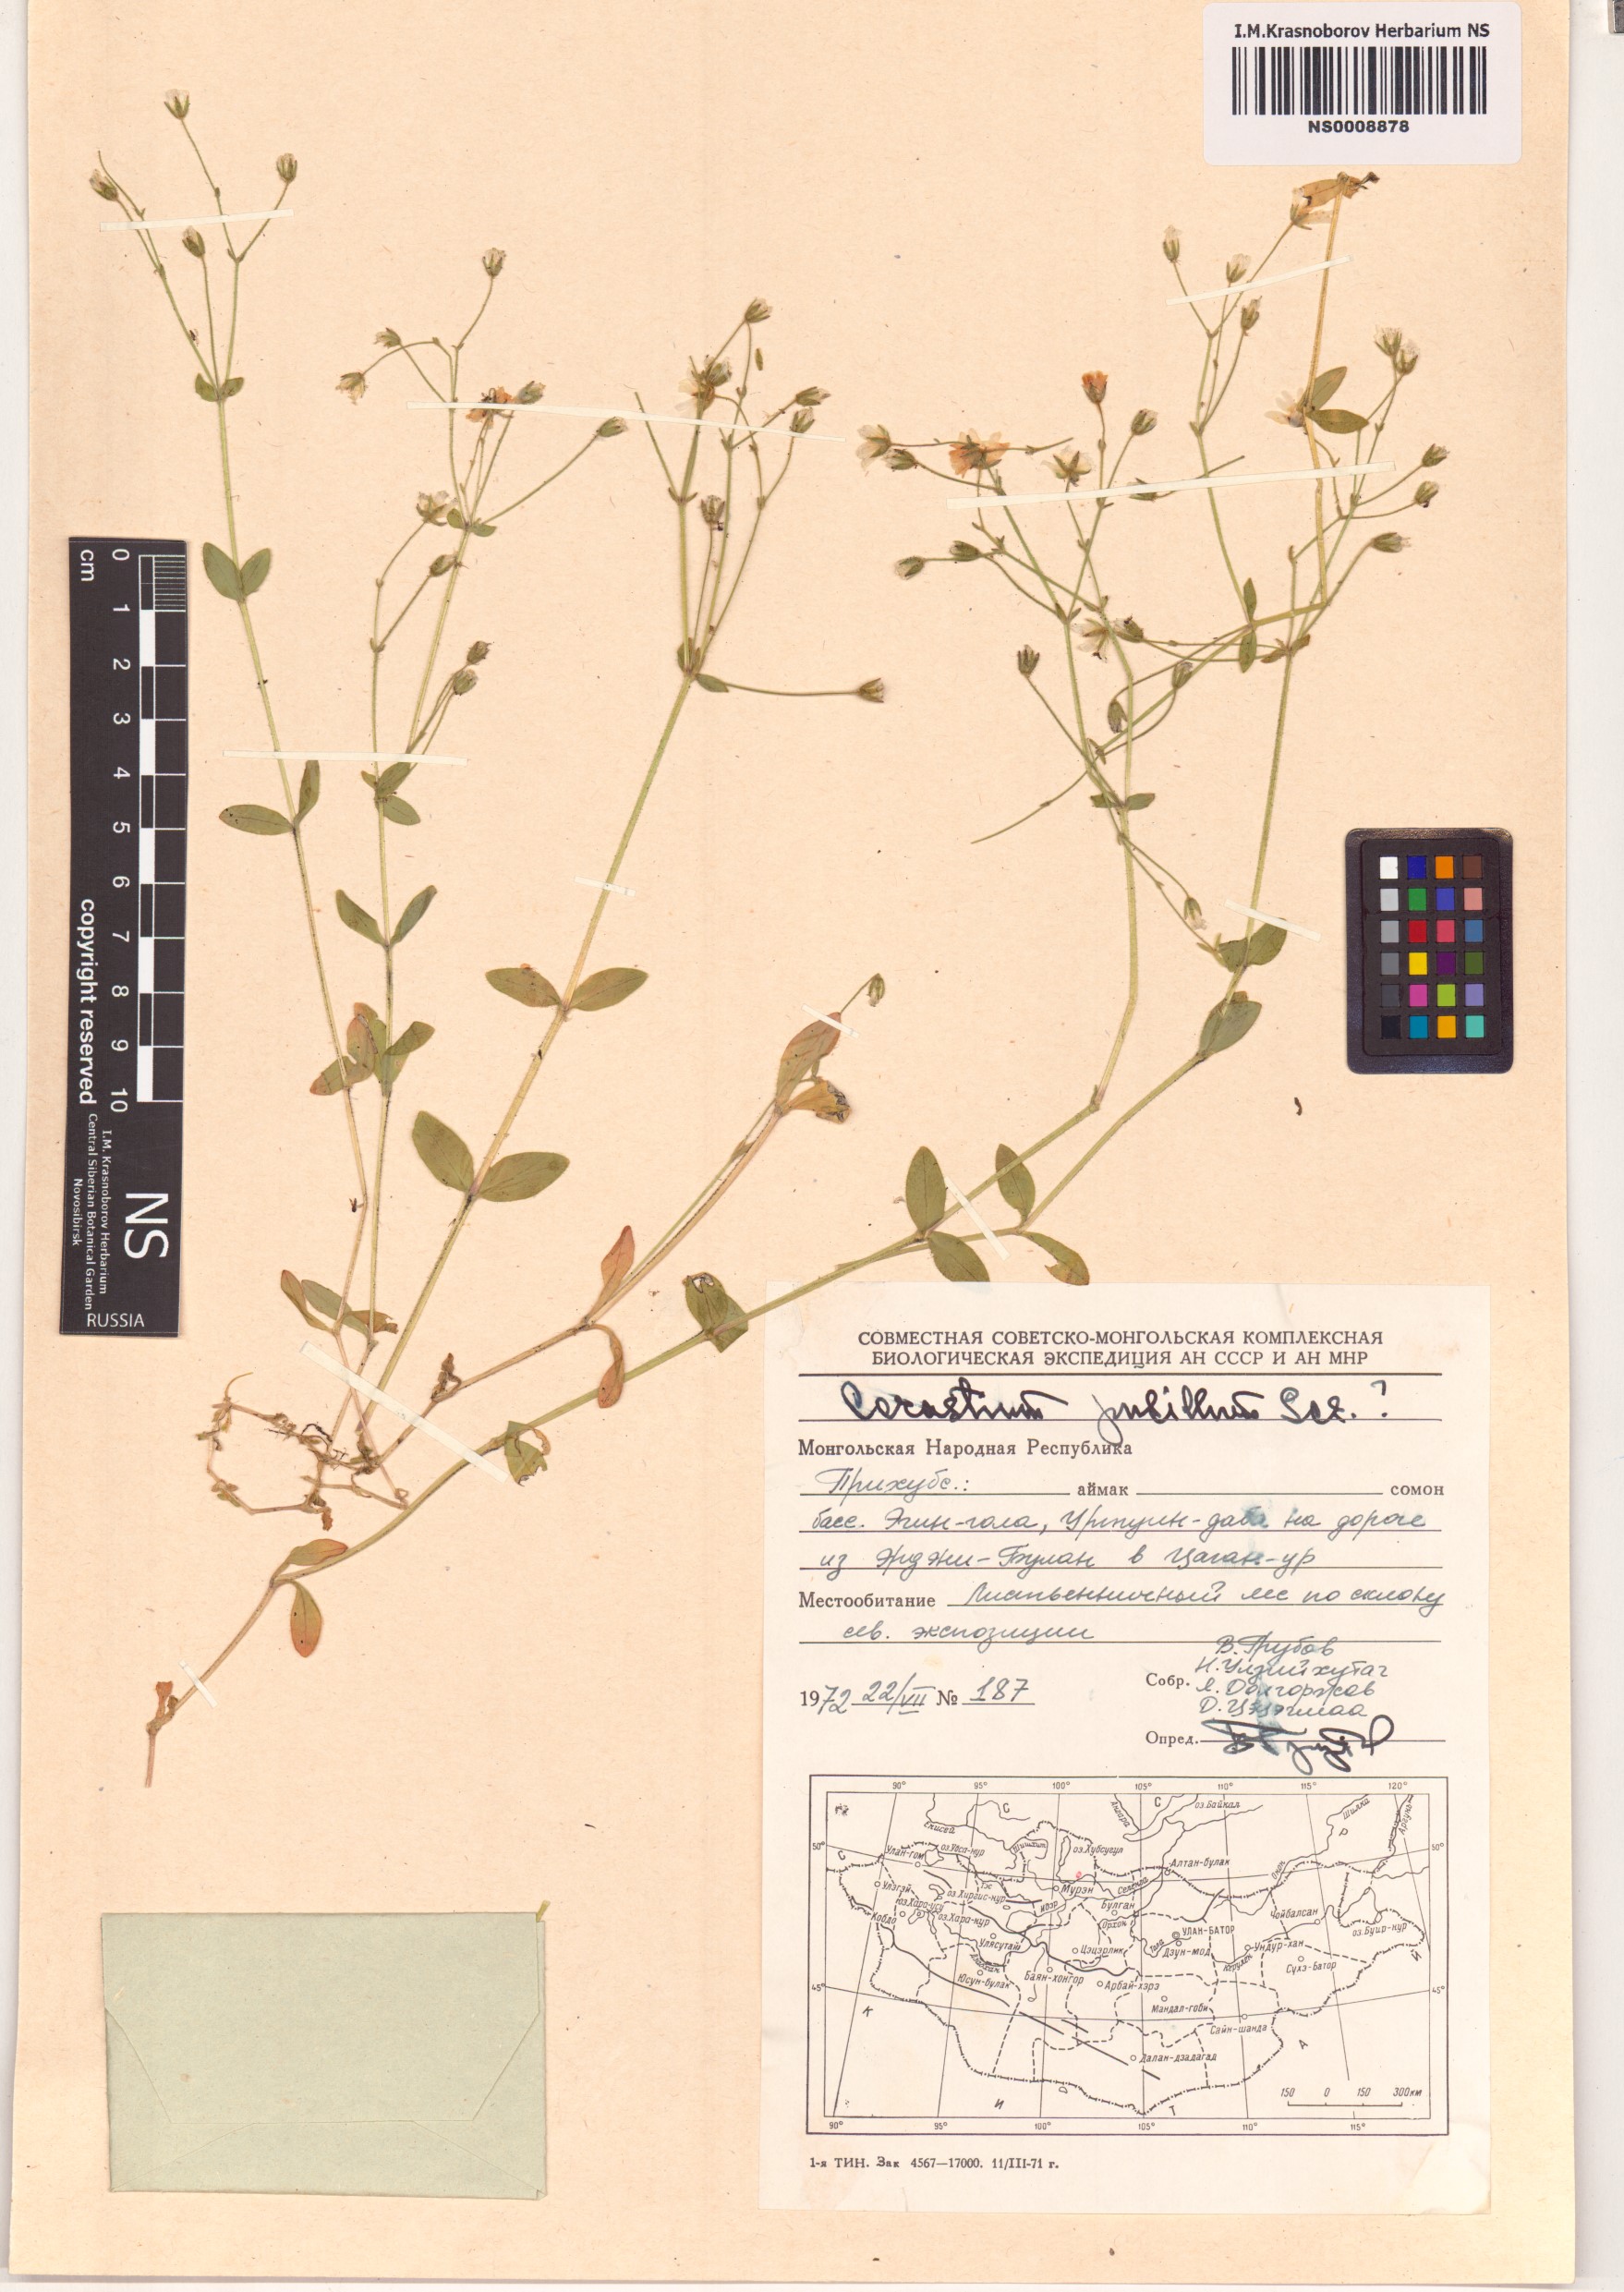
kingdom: Plantae
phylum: Tracheophyta
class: Magnoliopsida
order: Caryophyllales
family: Caryophyllaceae
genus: Cerastium
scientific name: Cerastium pusillum
